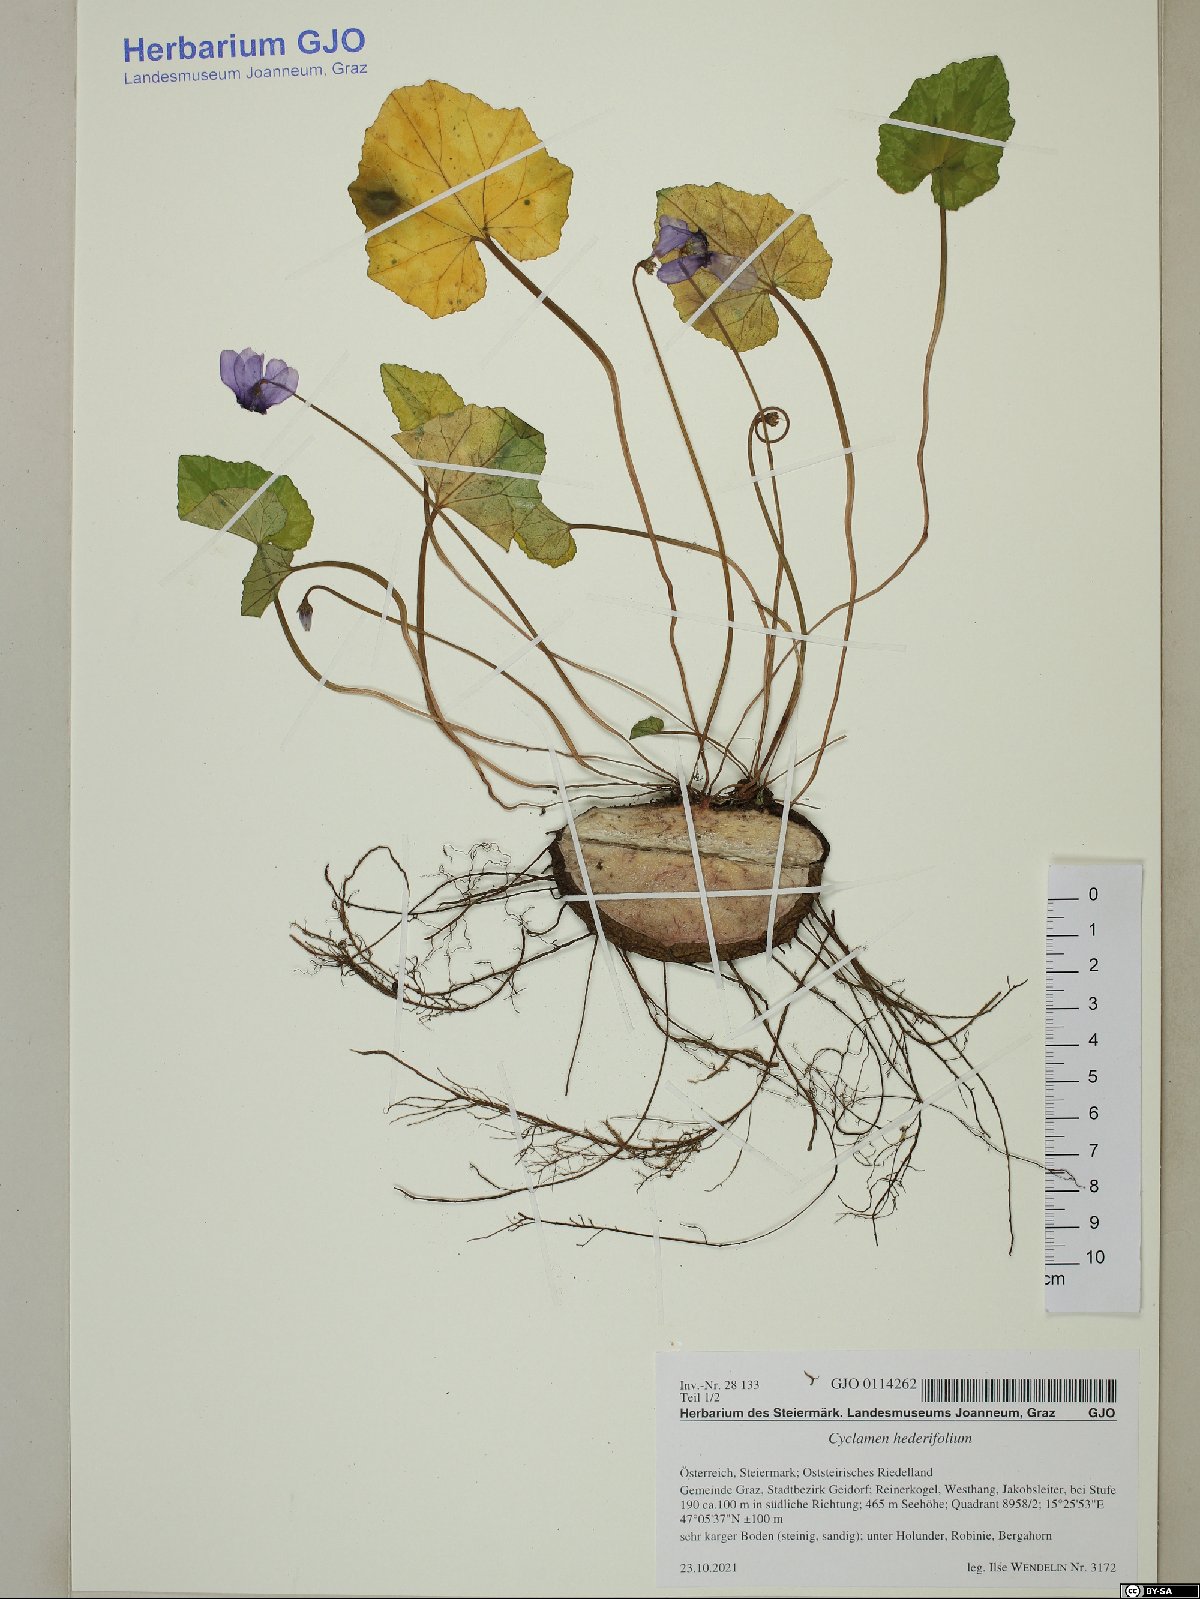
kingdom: Plantae
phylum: Tracheophyta
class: Magnoliopsida
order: Ericales
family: Primulaceae
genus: Cyclamen
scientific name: Cyclamen hederifolium
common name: Sowbread
